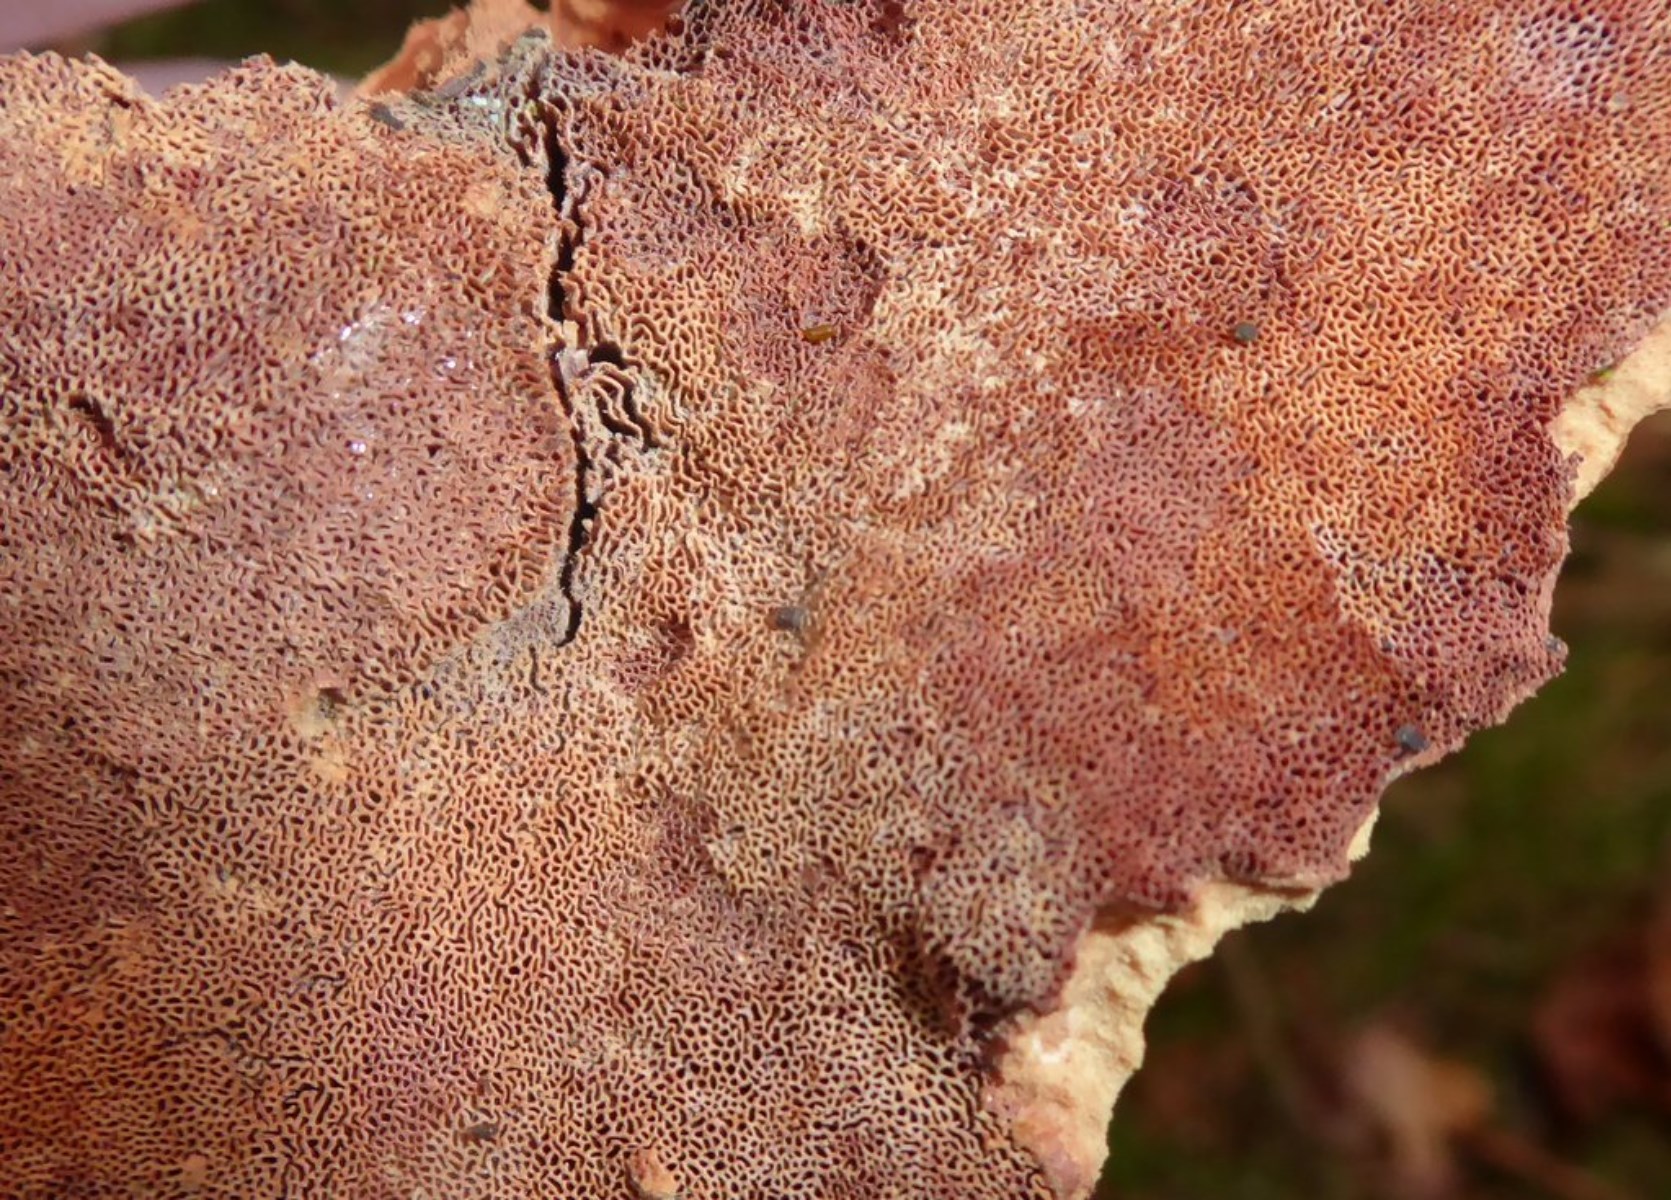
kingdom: Fungi
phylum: Basidiomycota
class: Agaricomycetes
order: Polyporales
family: Phanerochaetaceae
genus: Hapalopilus
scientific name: Hapalopilus rutilans
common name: rødlig okkerporesvamp
